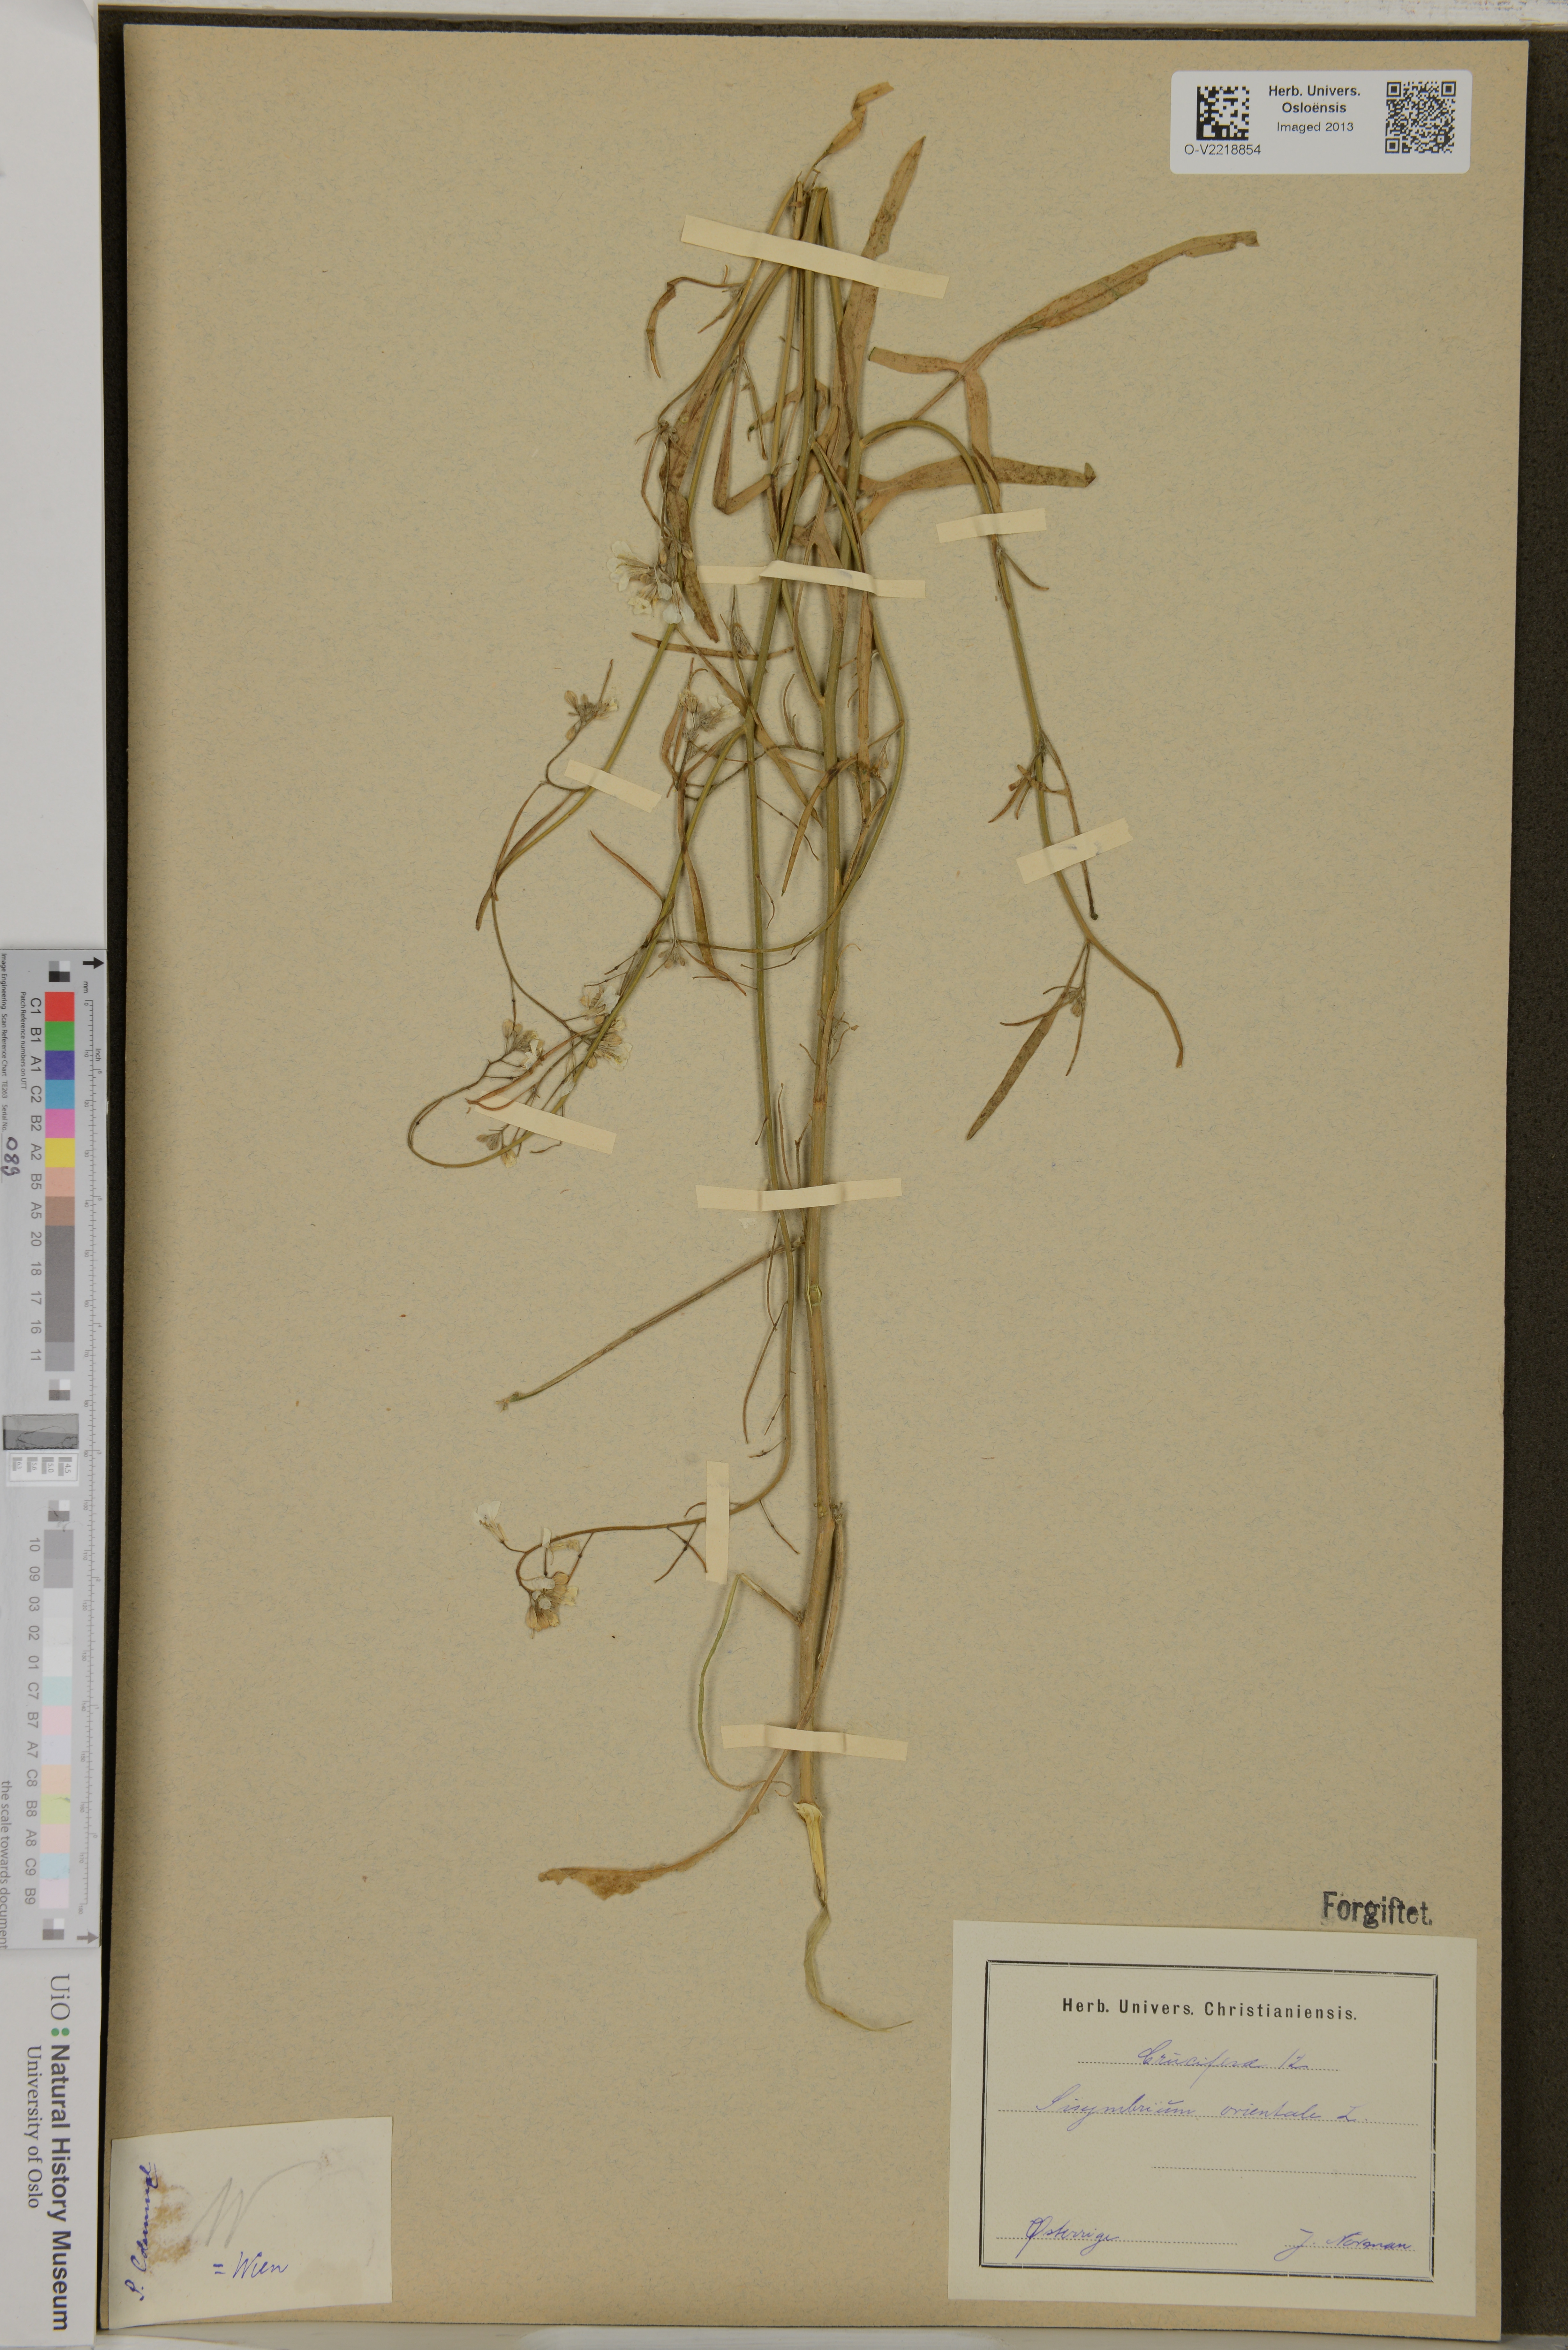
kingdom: Plantae
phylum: Tracheophyta
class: Magnoliopsida
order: Brassicales
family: Brassicaceae
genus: Sisymbrium
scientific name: Sisymbrium orientale
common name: Eastern rocket
